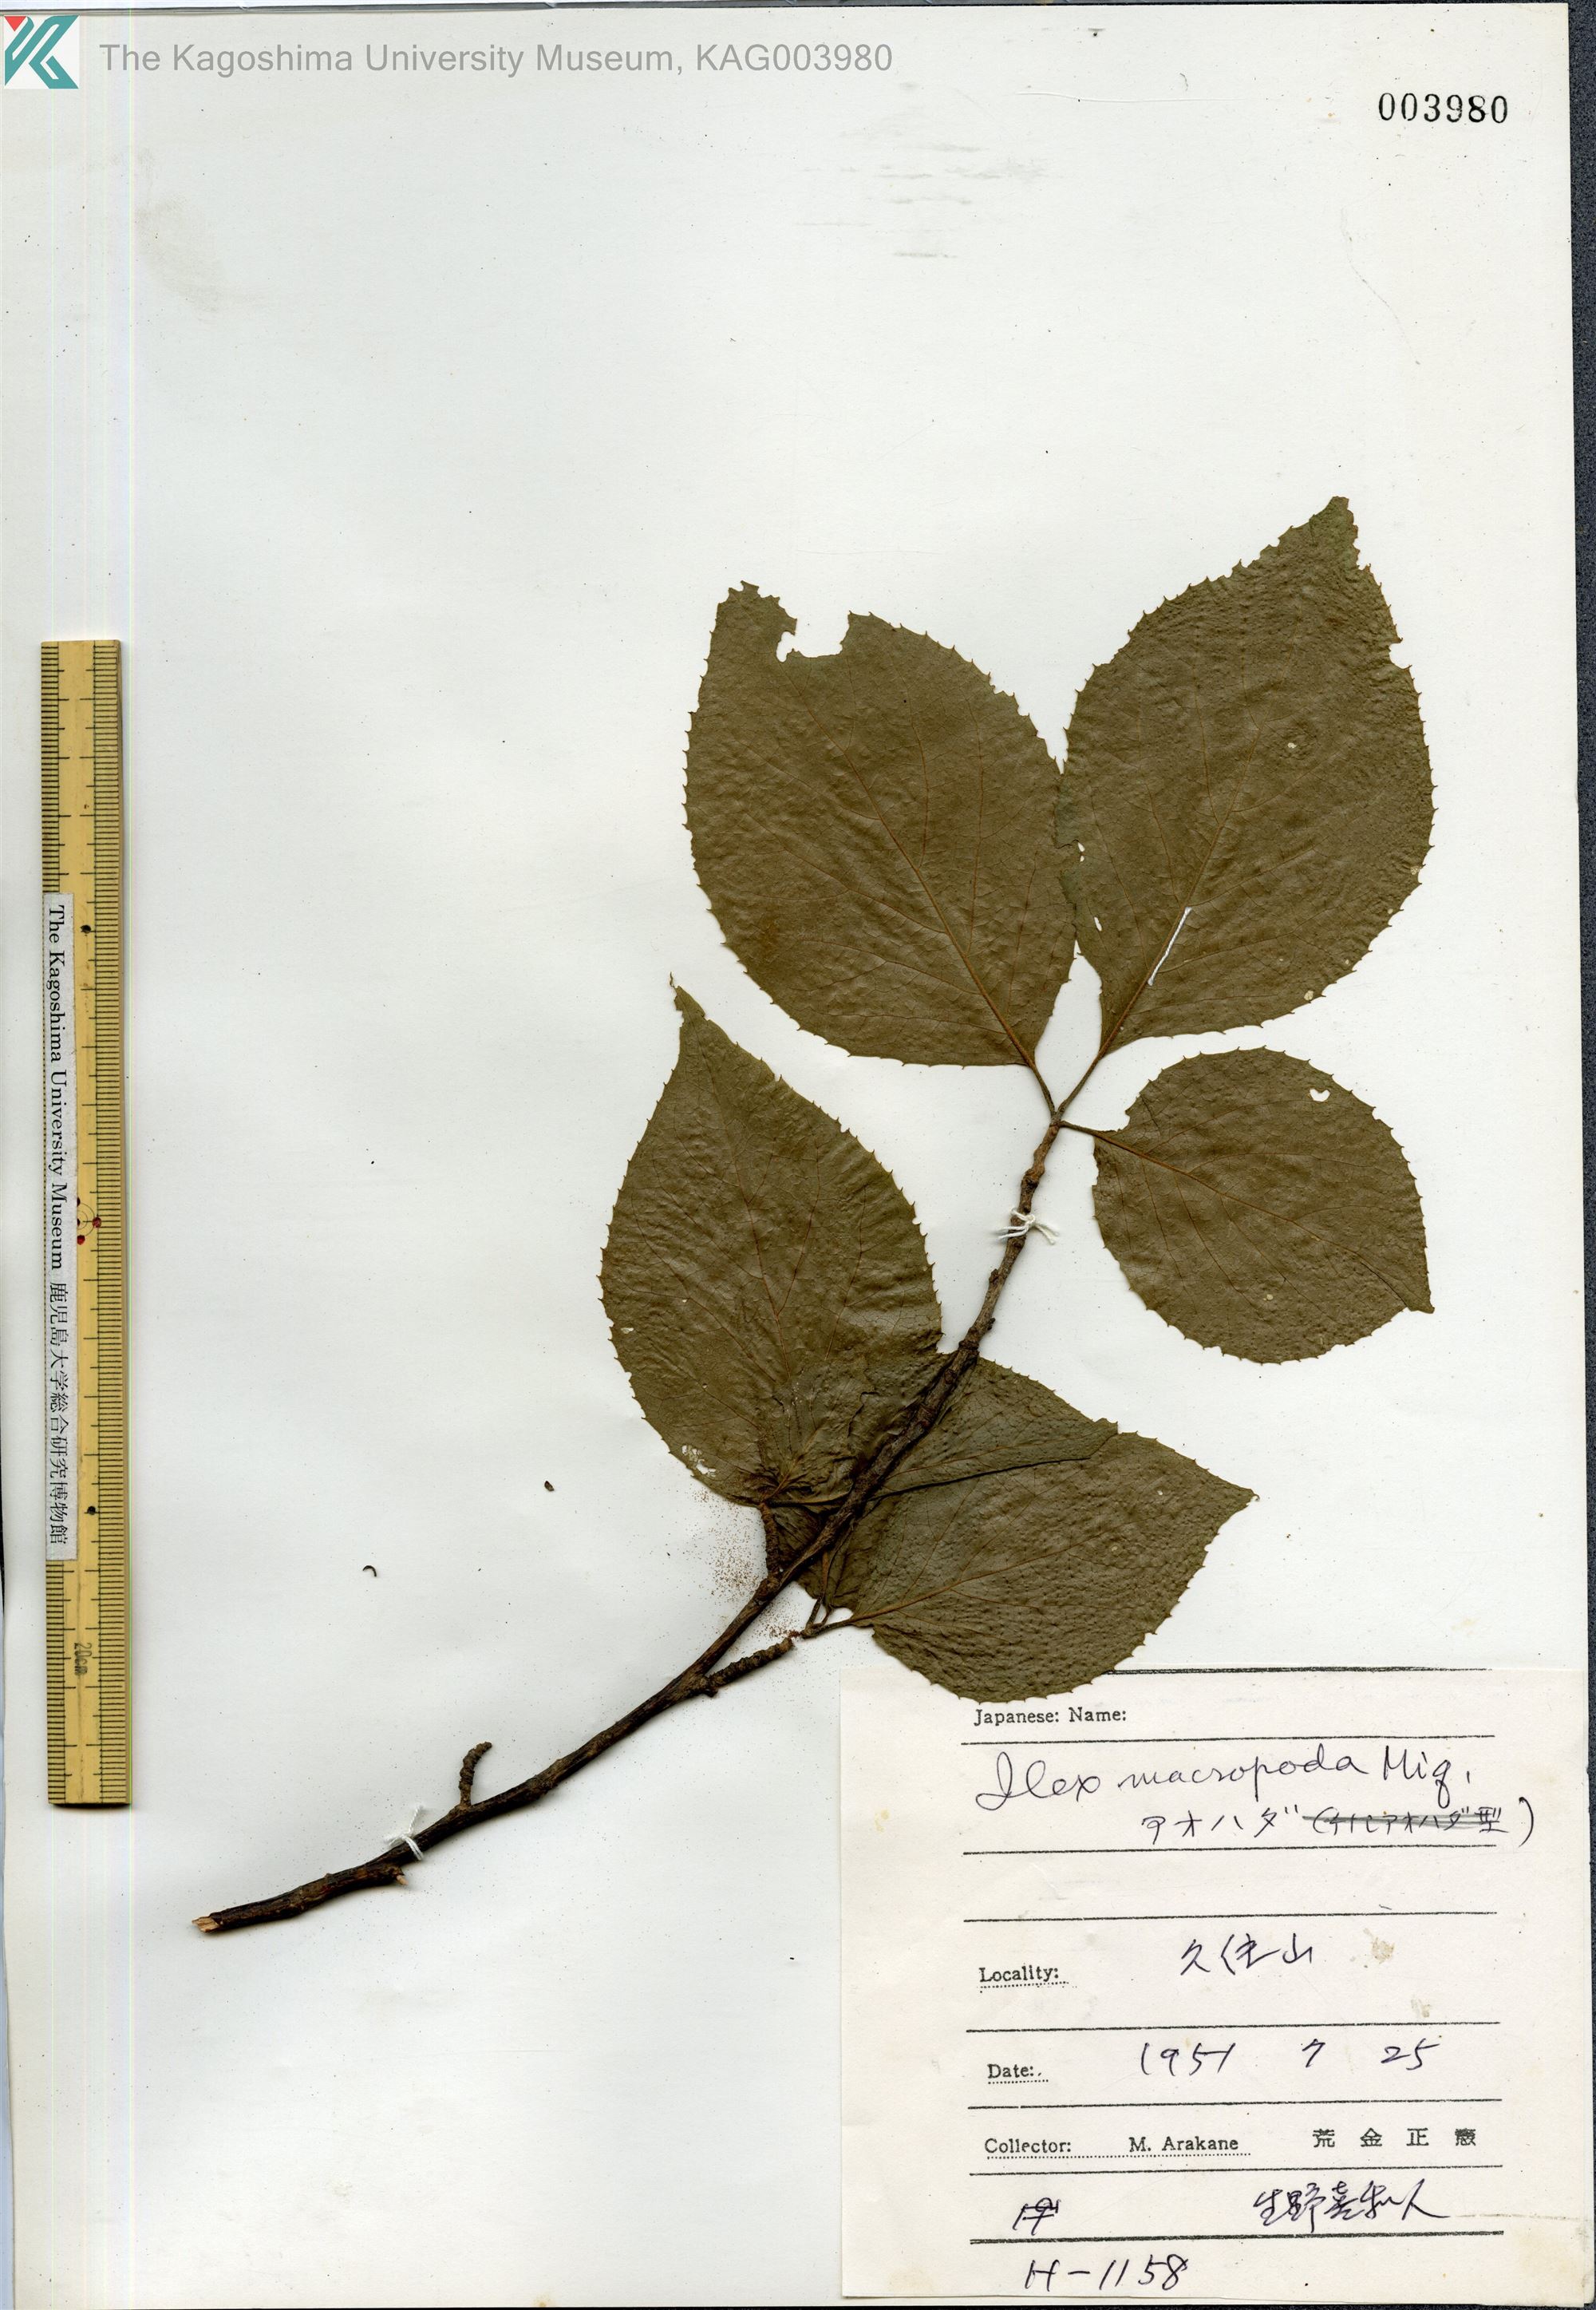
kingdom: Plantae
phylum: Tracheophyta
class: Magnoliopsida
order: Aquifoliales
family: Aquifoliaceae
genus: Ilex
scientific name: Ilex macropoda
